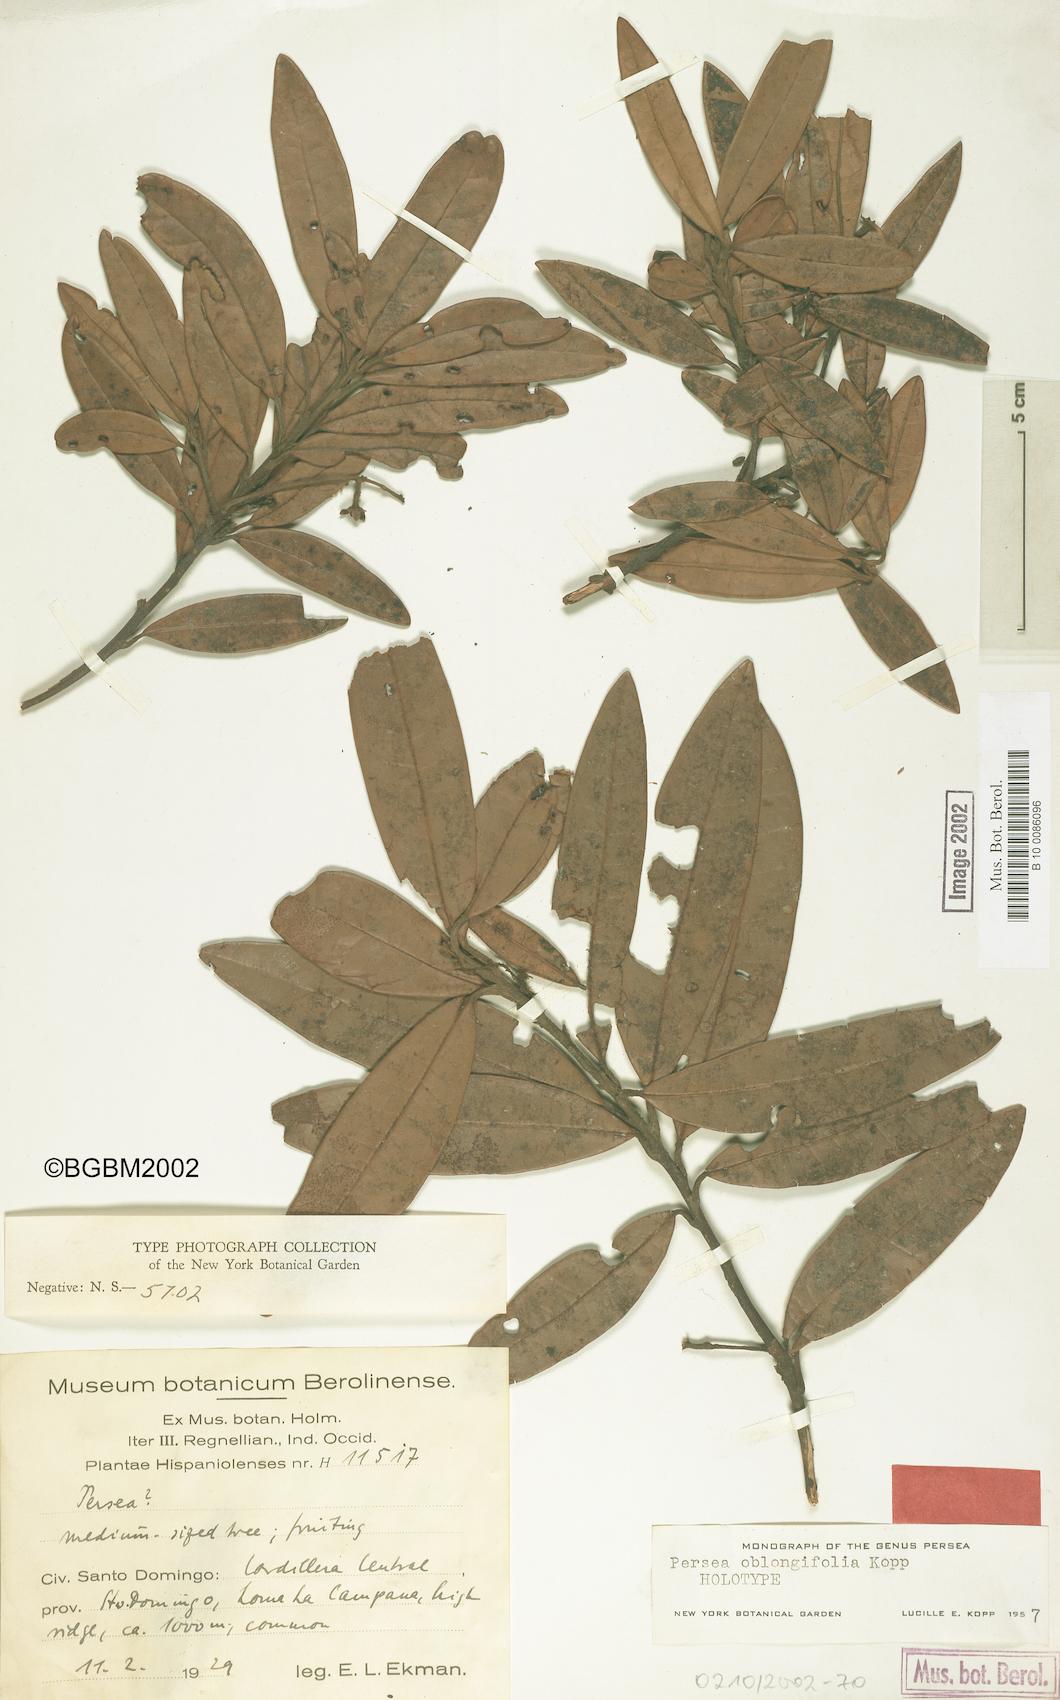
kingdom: Plantae
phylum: Tracheophyta
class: Magnoliopsida
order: Laurales
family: Lauraceae
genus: Persea
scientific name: Persea oblongifolia
